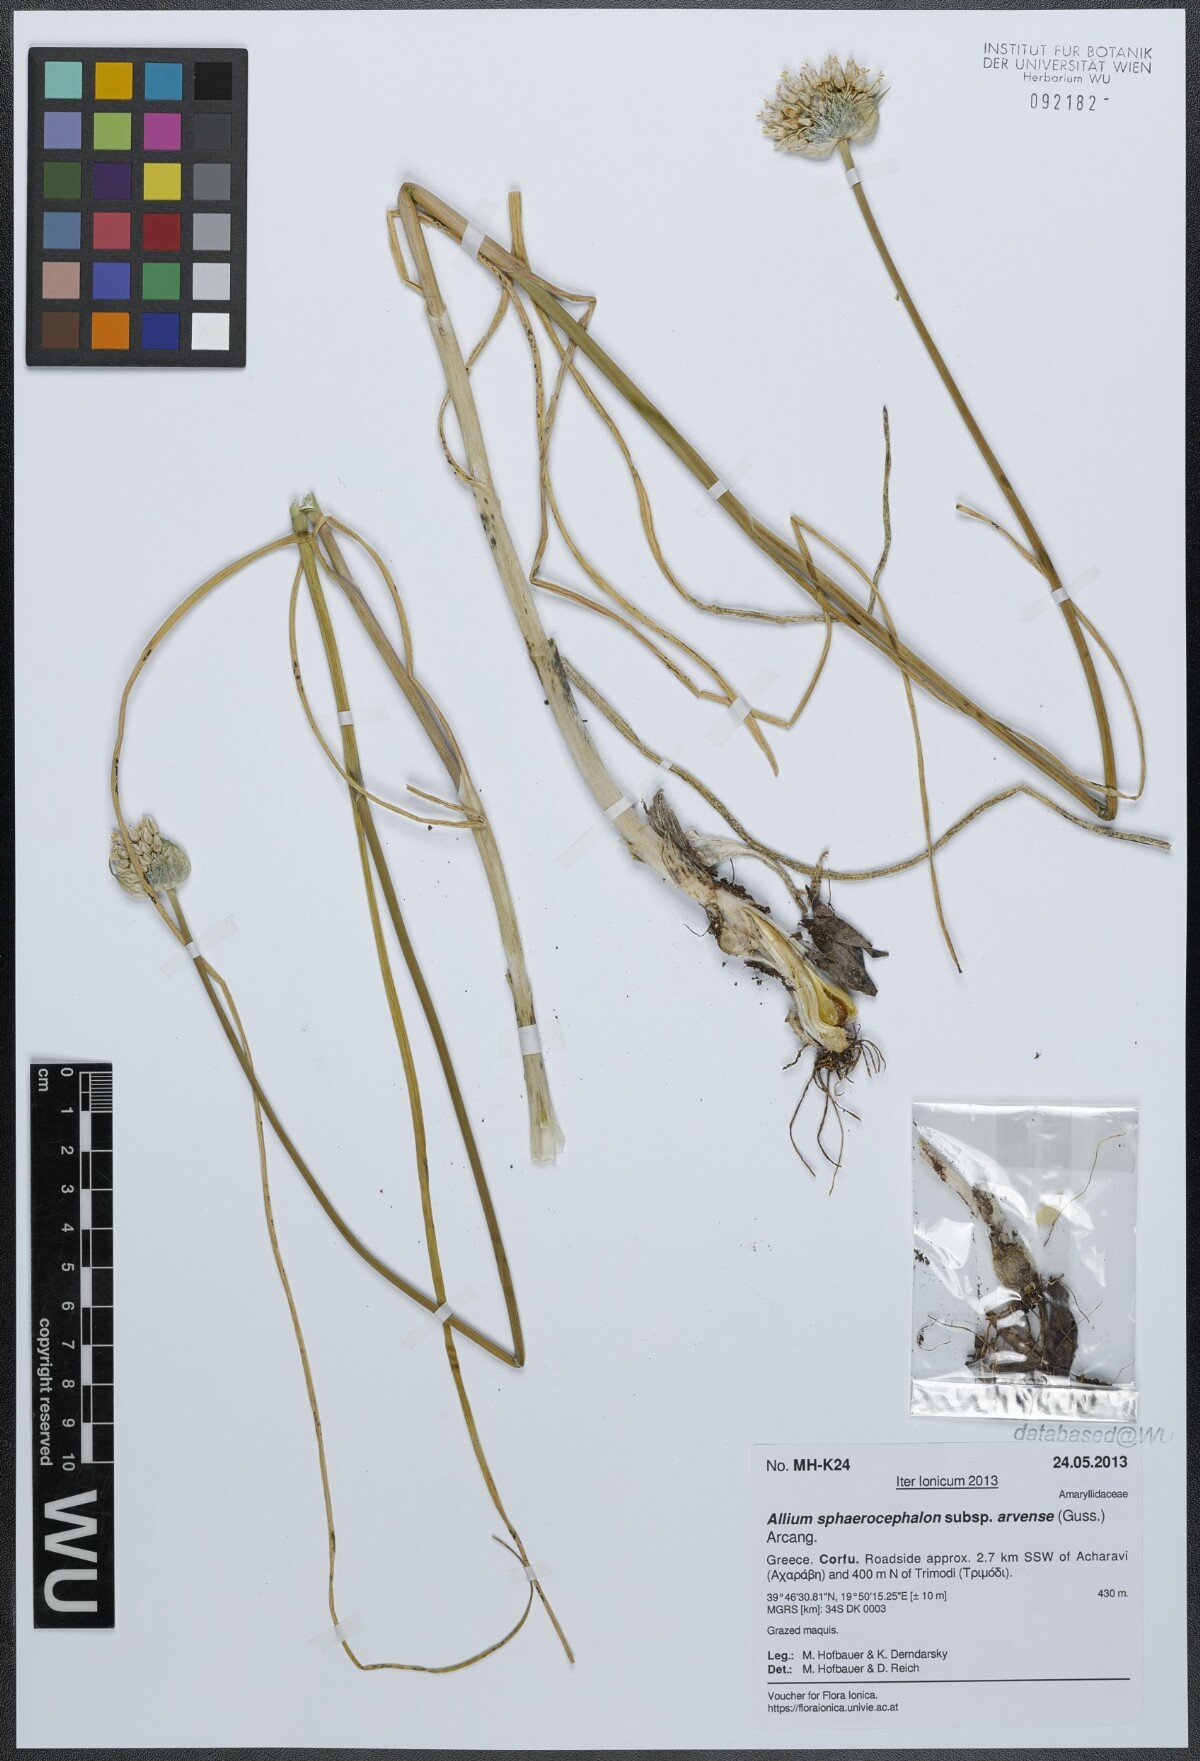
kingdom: Plantae
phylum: Tracheophyta
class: Liliopsida
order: Asparagales
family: Amaryllidaceae
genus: Allium
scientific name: Allium sphaerocephalon
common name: Round-headed leek
